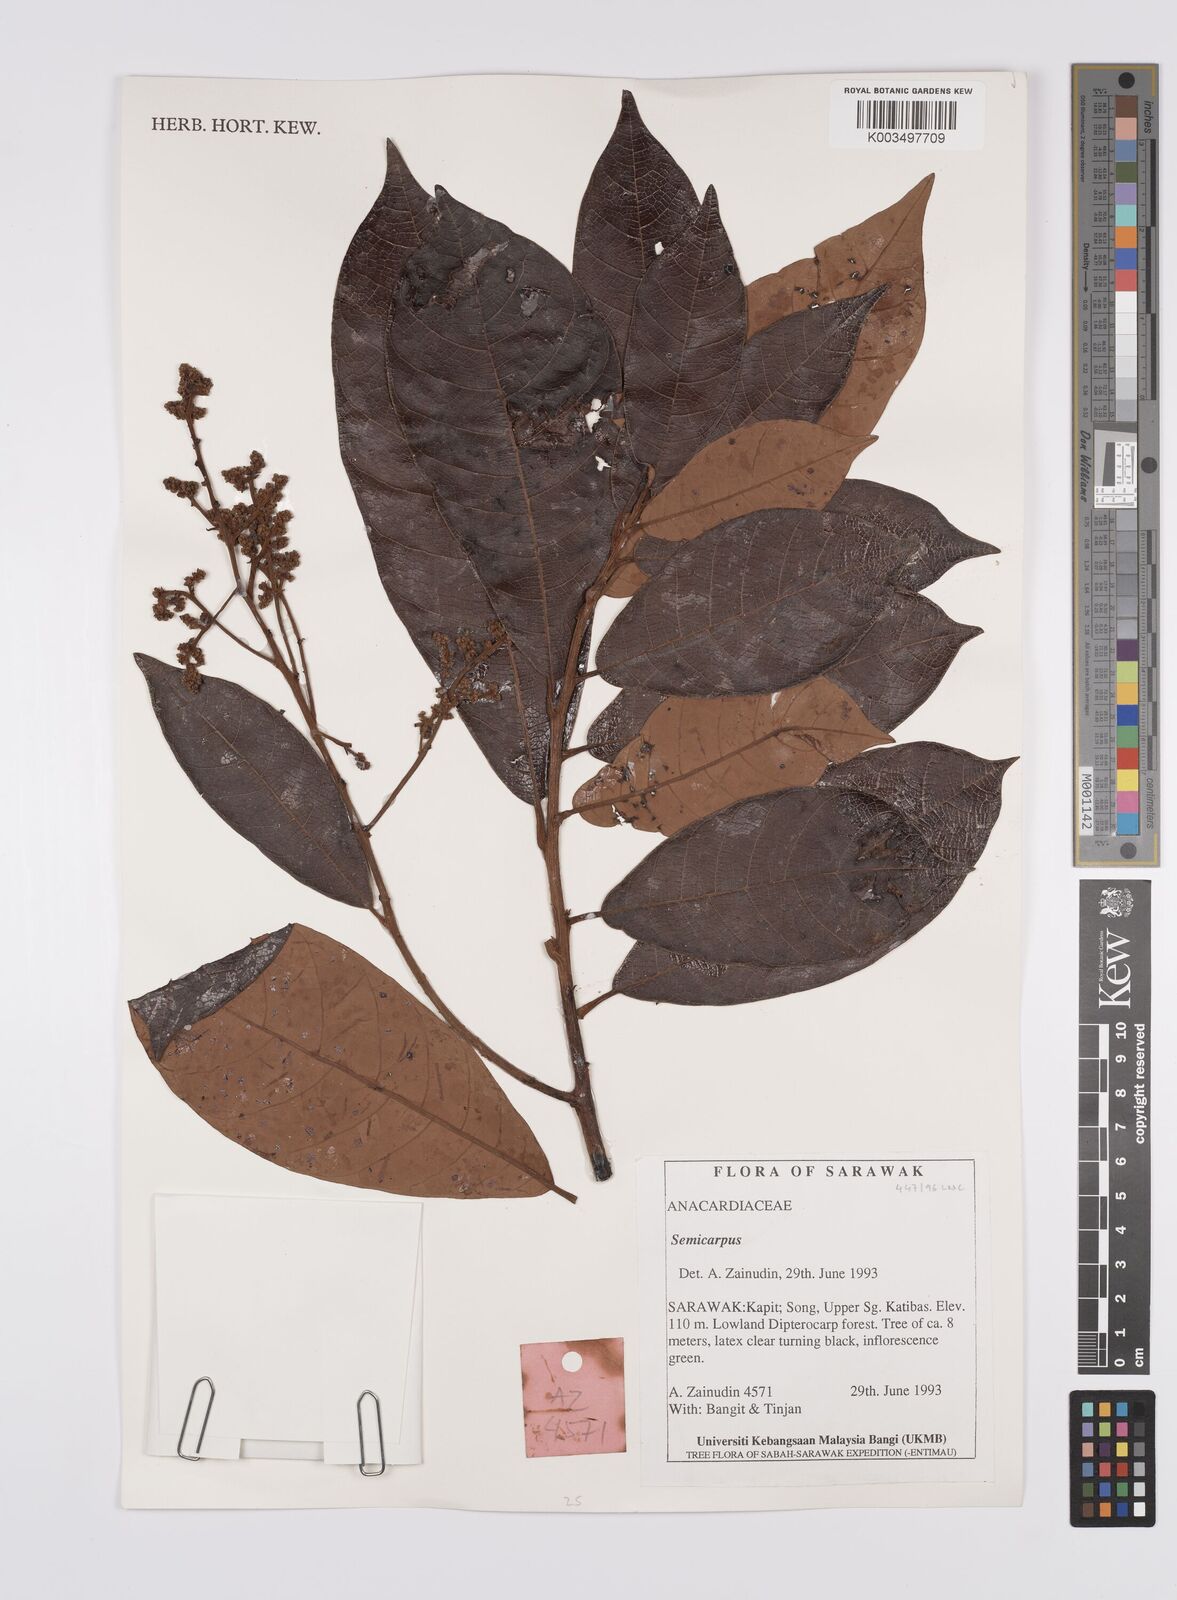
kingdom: Plantae
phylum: Tracheophyta
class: Magnoliopsida
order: Sapindales
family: Anacardiaceae
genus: Semecarpus
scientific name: Semecarpus
